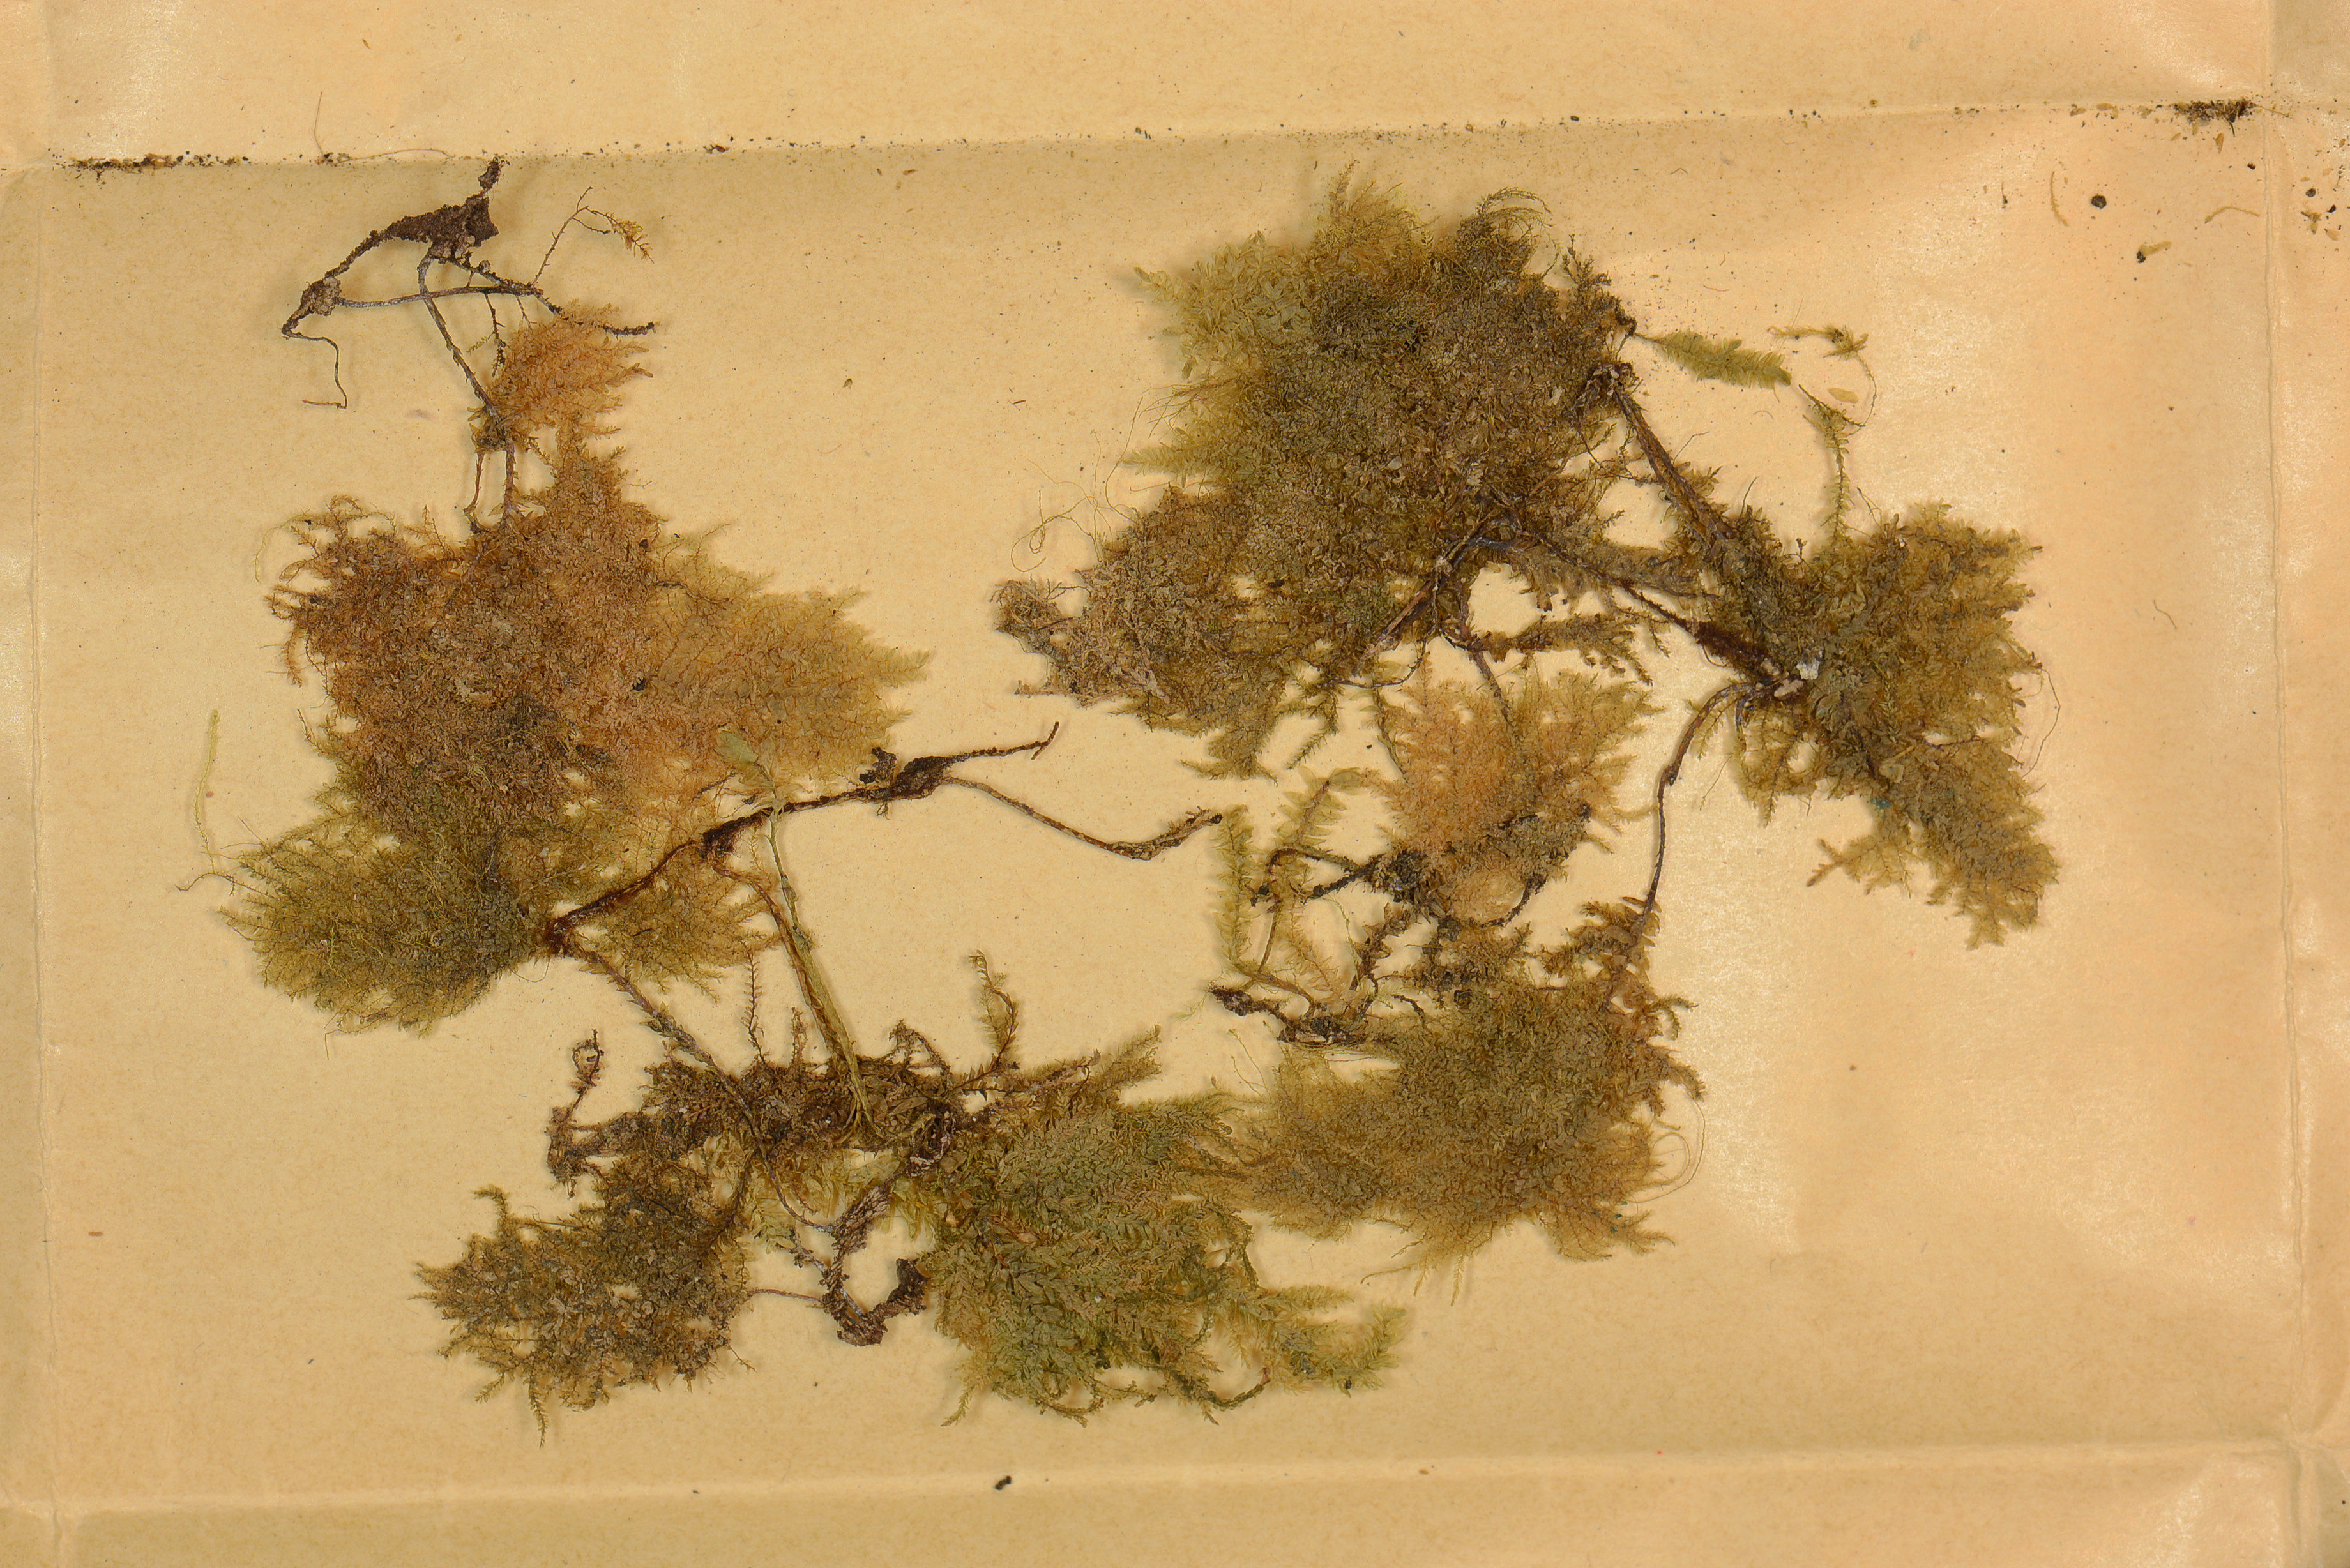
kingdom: Plantae
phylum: Bryophyta
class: Bryopsida
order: Hypnales
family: Neckeraceae
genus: Homalia
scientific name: Homalia
